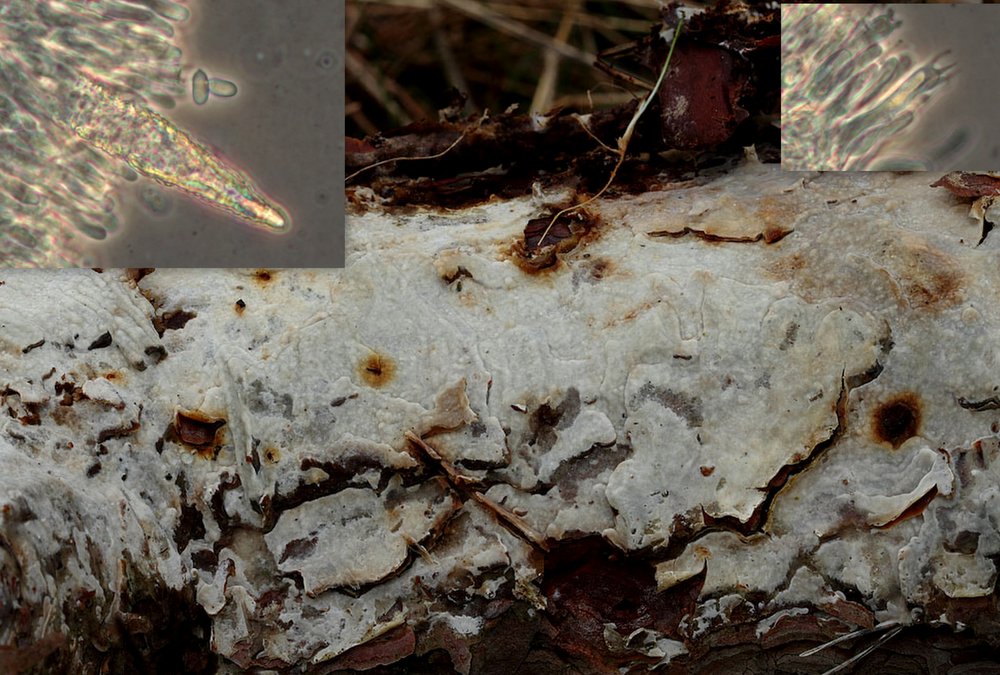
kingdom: Fungi
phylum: Basidiomycota
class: Agaricomycetes
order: Polyporales
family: Phanerochaetaceae
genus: Phlebiopsis
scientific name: Phlebiopsis gigantea
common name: kæmpebarksvamp
